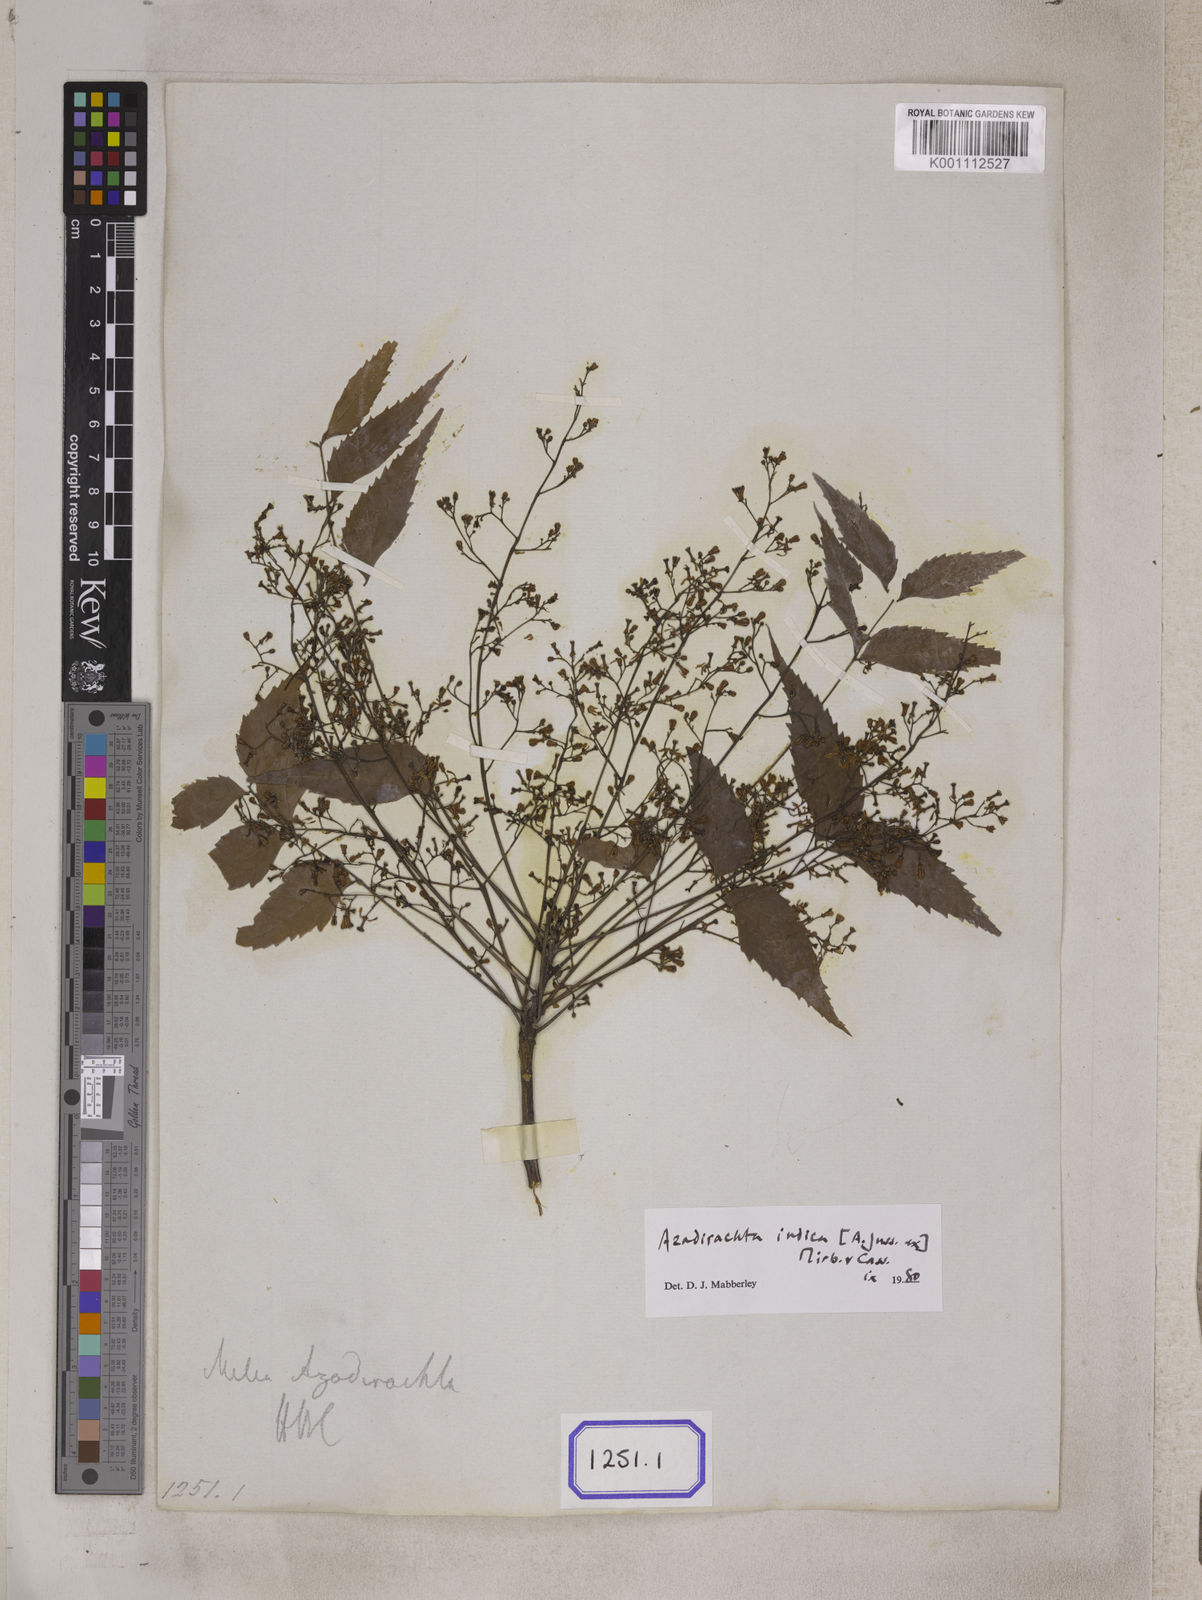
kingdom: Plantae
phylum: Tracheophyta
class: Magnoliopsida
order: Sapindales
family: Meliaceae
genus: Azadirachta
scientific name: Azadirachta indica
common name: Neem
